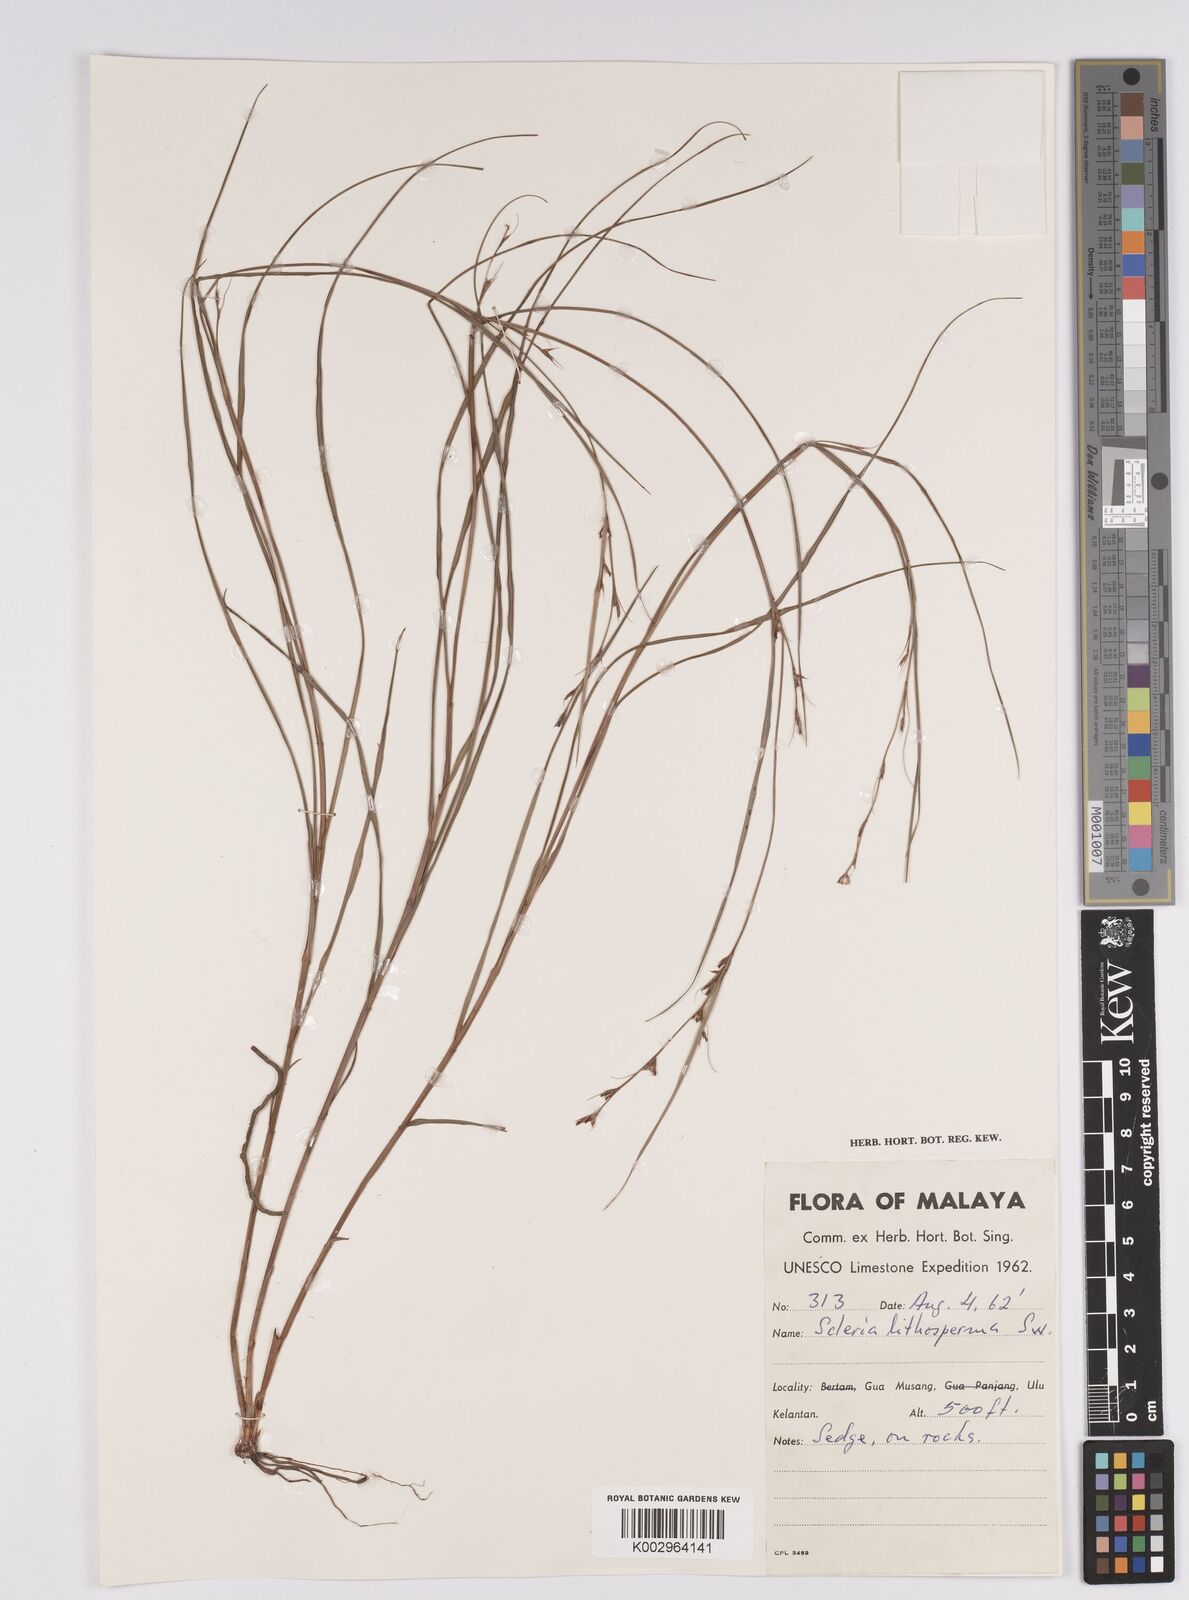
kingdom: Plantae
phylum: Tracheophyta
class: Liliopsida
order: Poales
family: Cyperaceae
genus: Scleria
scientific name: Scleria lithosperma
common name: Florida keys nut-rush
